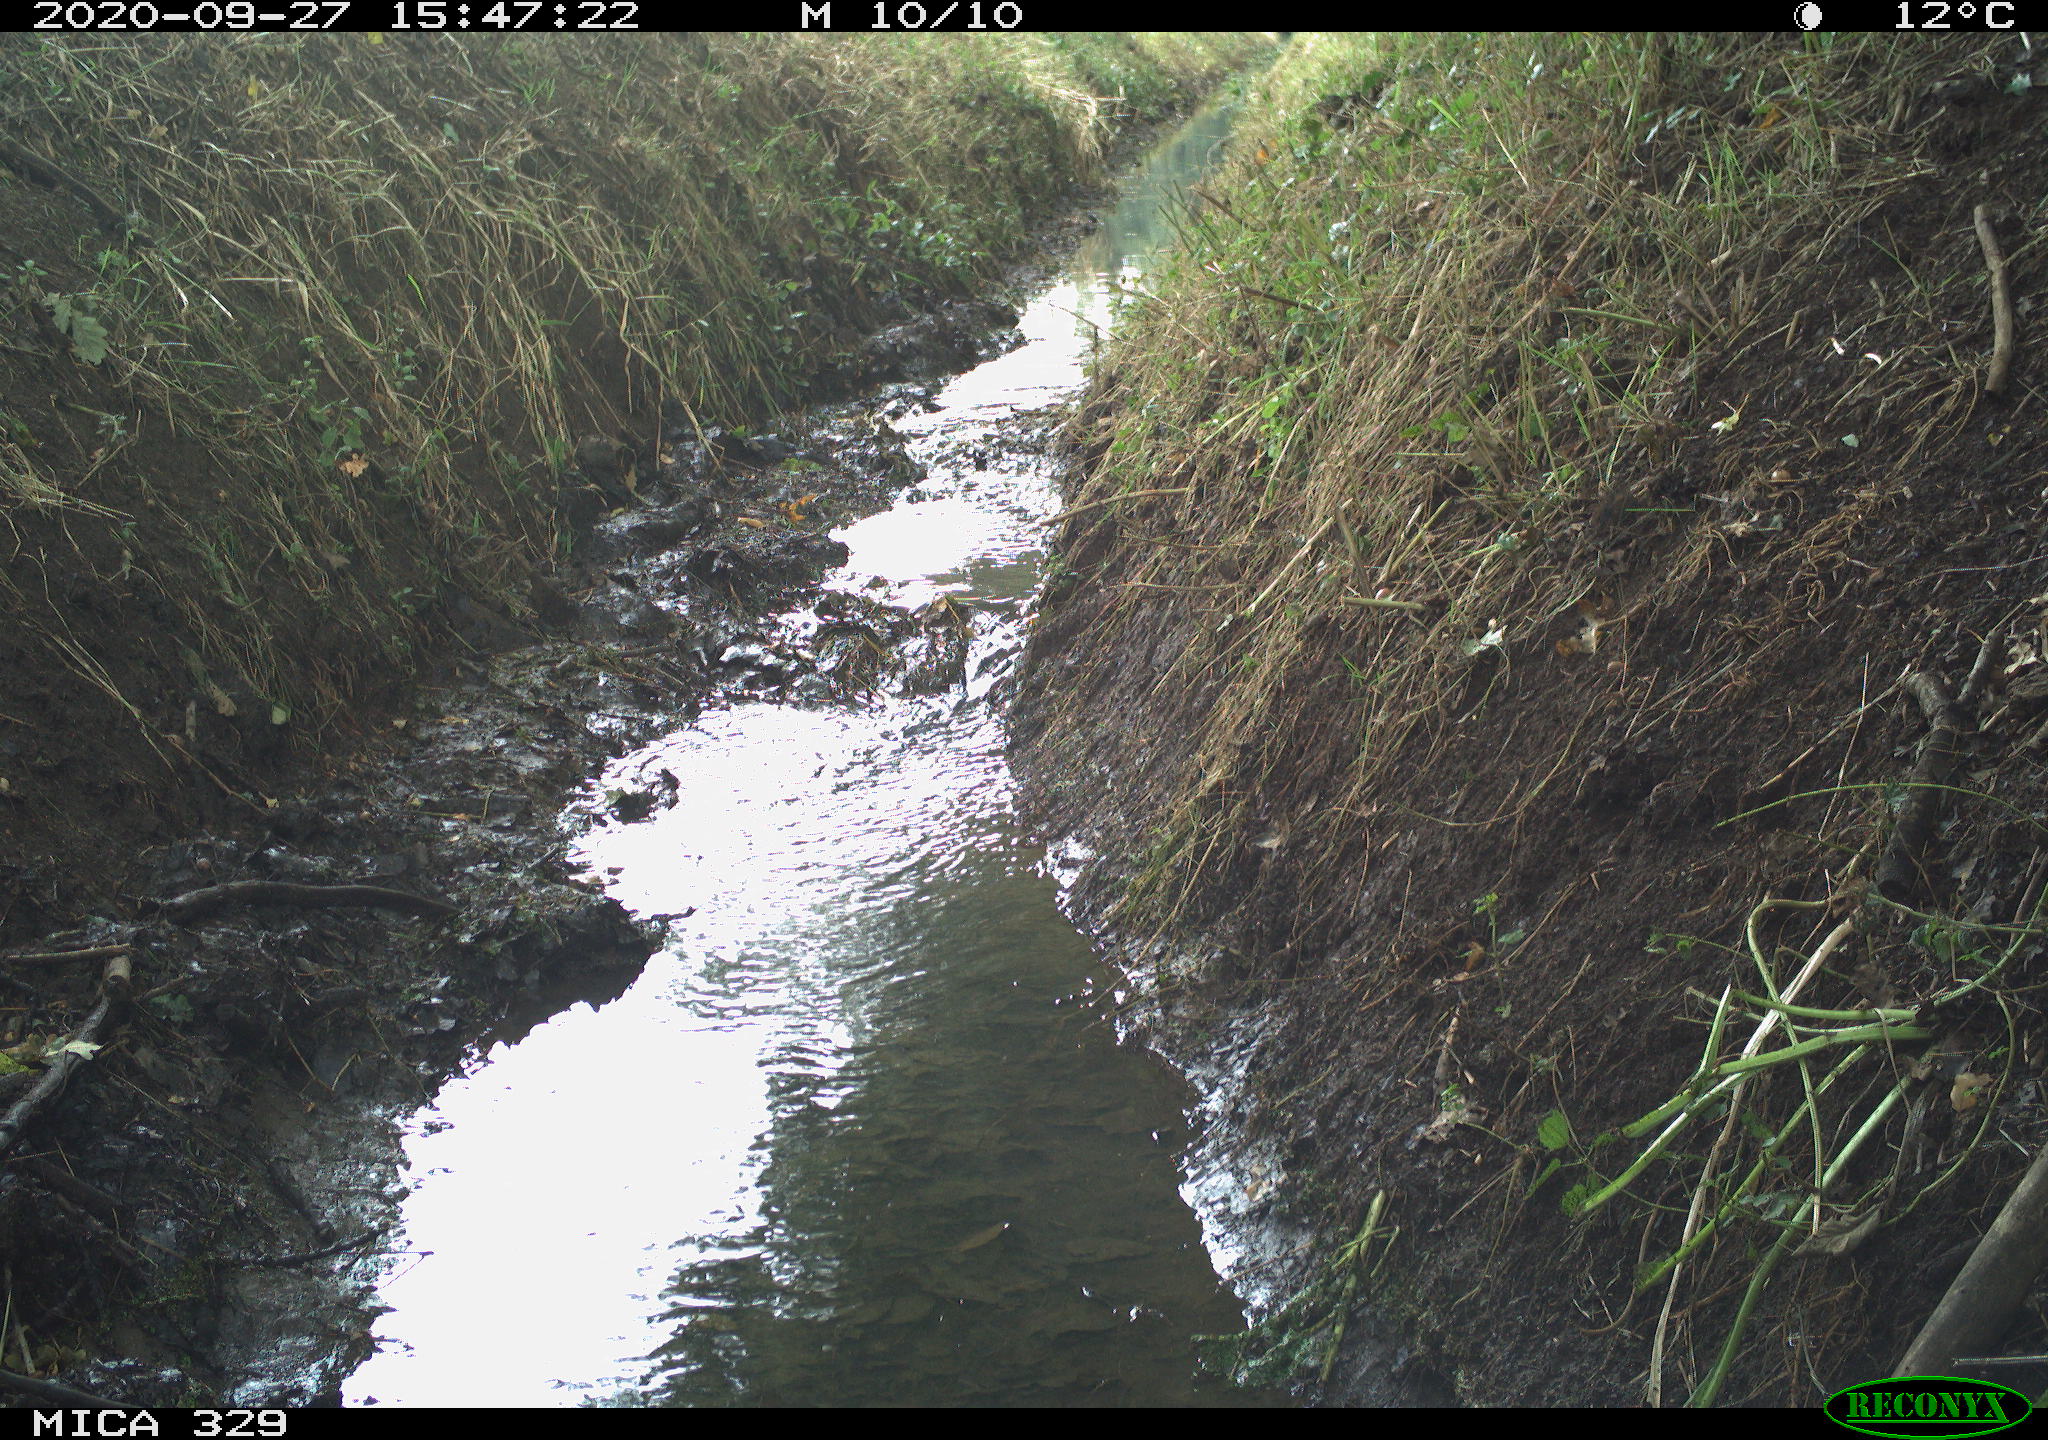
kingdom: Animalia
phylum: Chordata
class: Mammalia
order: Rodentia
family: Sciuridae
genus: Sciurus
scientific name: Sciurus vulgaris
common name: Eurasian red squirrel
